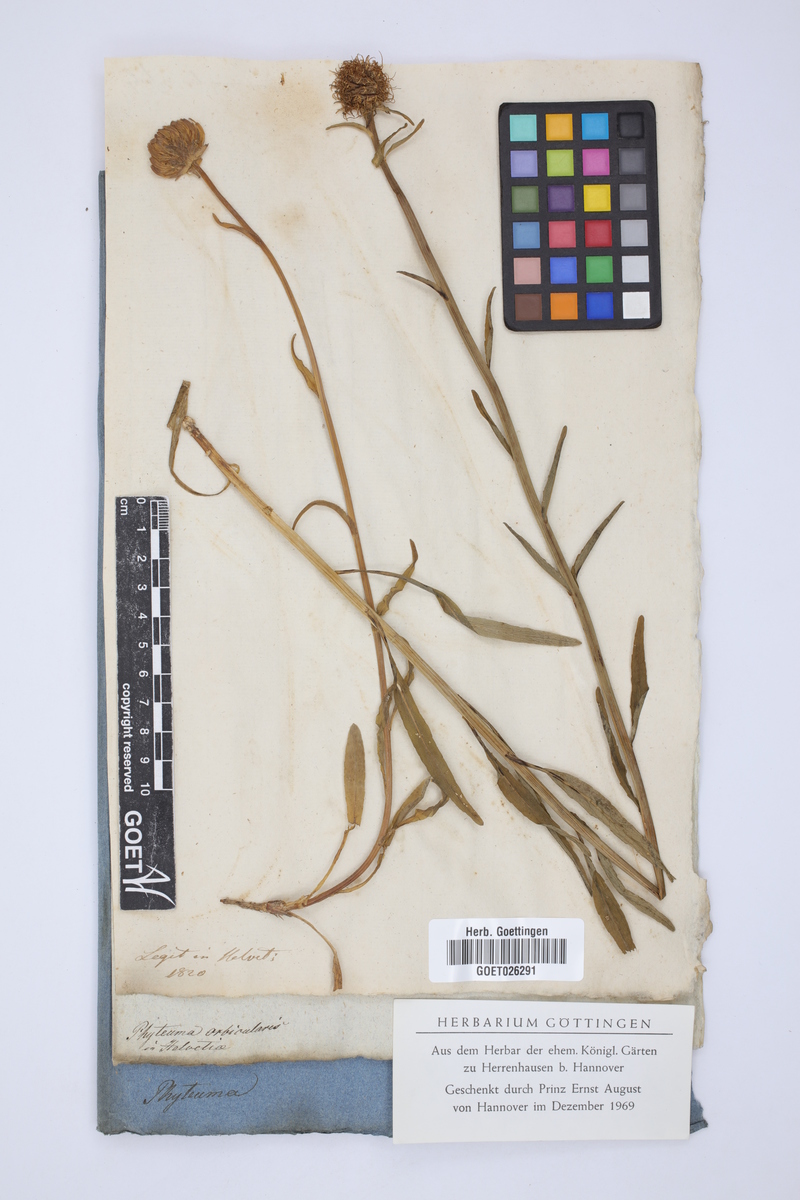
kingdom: Plantae
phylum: Tracheophyta
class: Magnoliopsida
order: Asterales
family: Campanulaceae
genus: Phyteuma
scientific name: Phyteuma orbiculare
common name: Round-headed rampion
